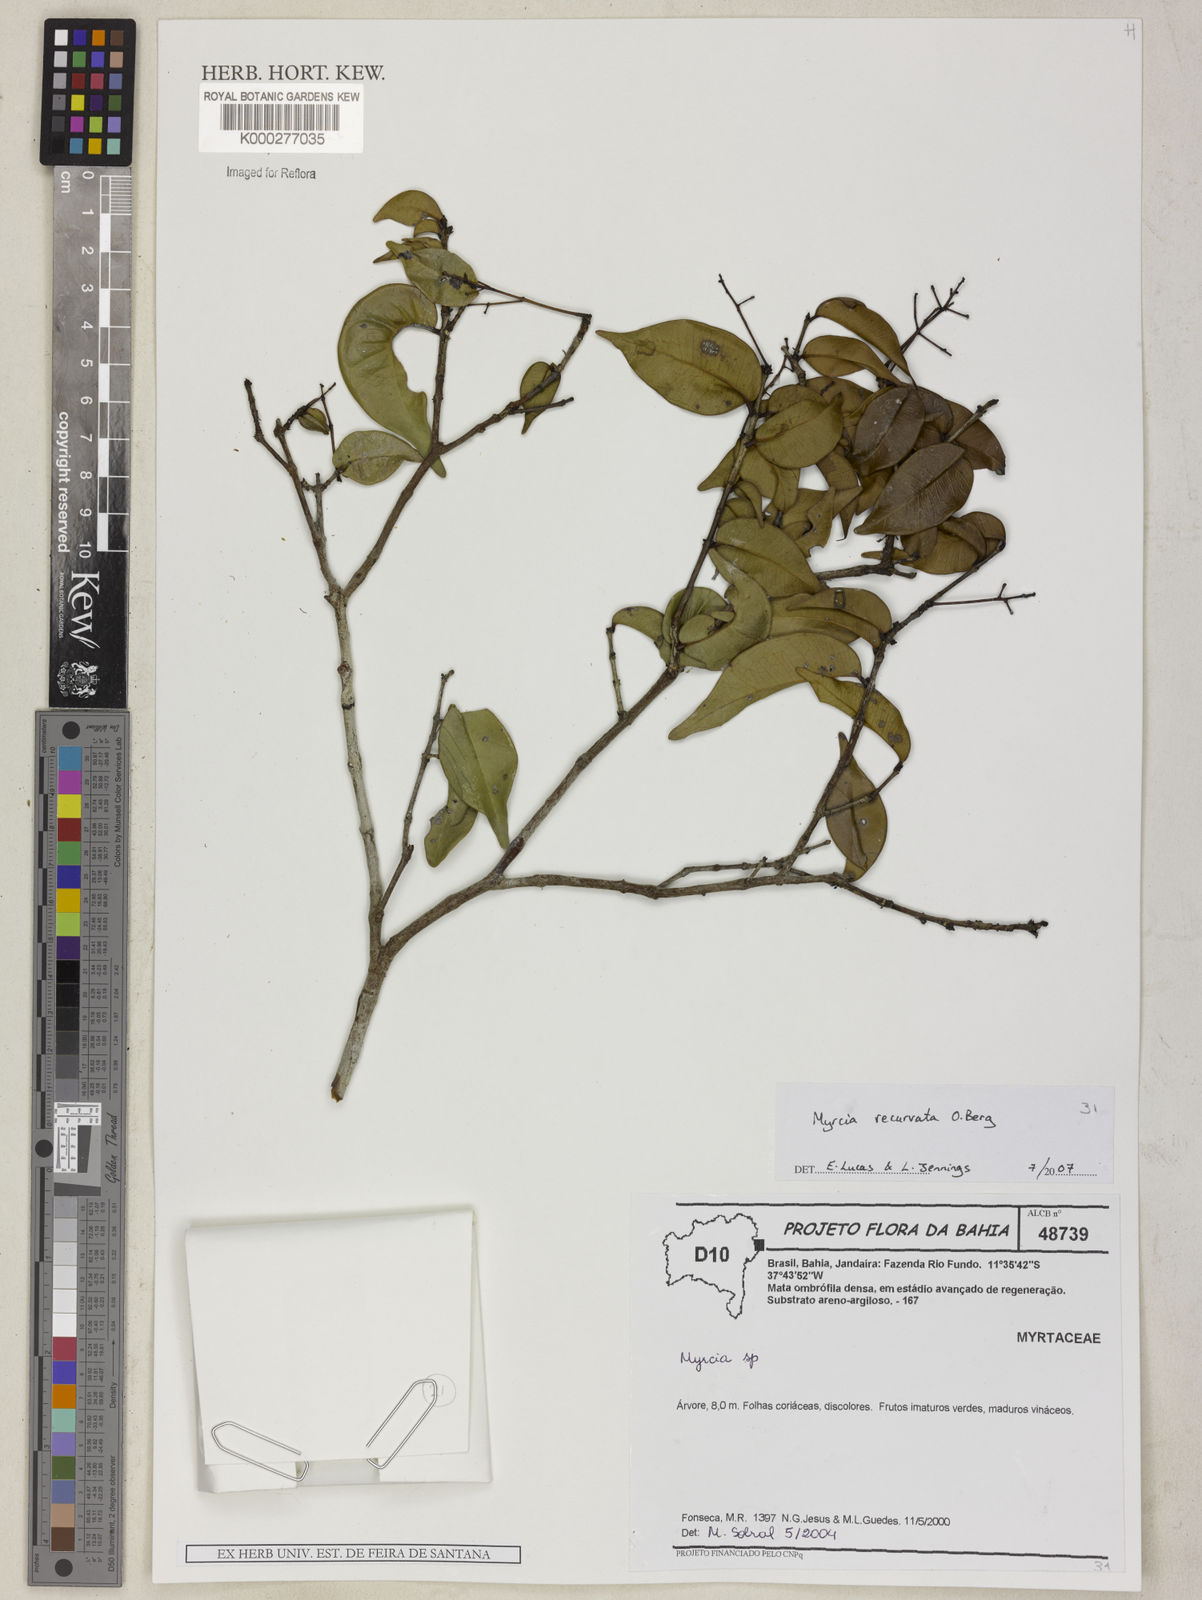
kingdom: Plantae
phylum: Tracheophyta
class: Magnoliopsida
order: Myrtales
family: Myrtaceae
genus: Myrcia
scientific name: Myrcia recurvata
